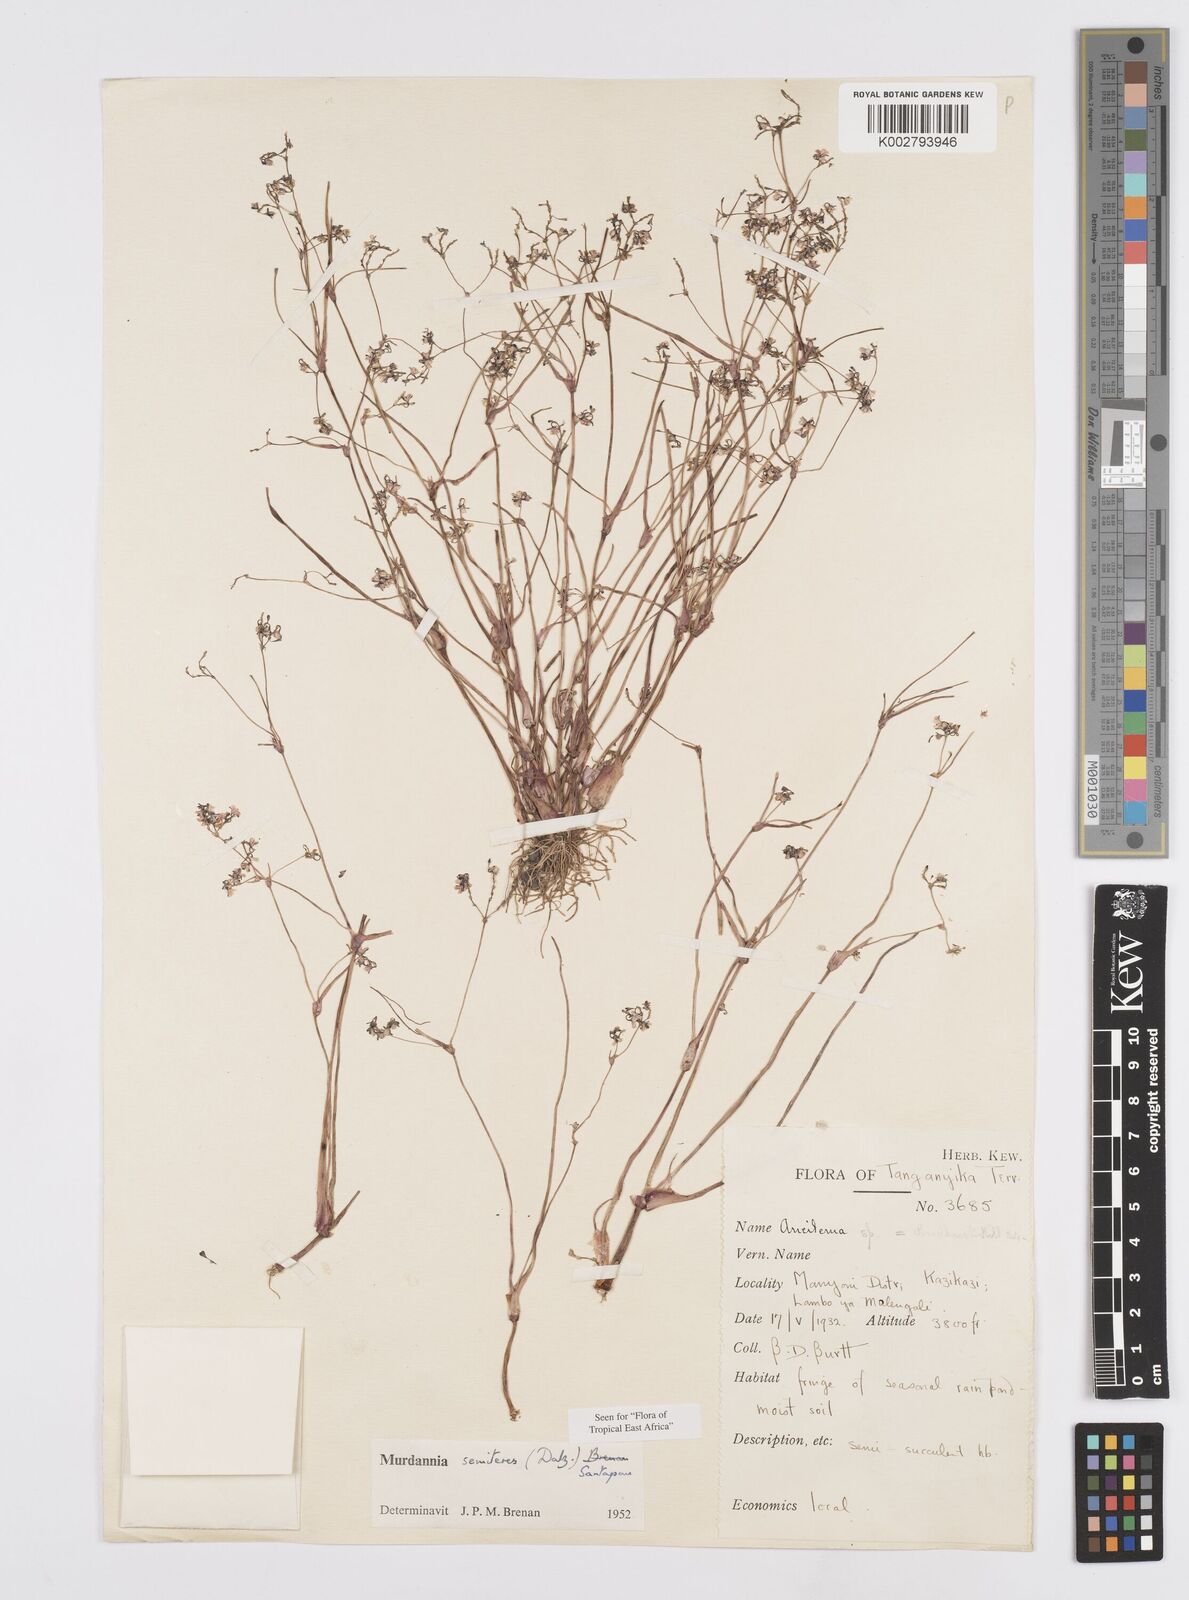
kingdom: Plantae
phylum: Tracheophyta
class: Liliopsida
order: Commelinales
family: Commelinaceae
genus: Murdannia
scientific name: Murdannia semiteres
